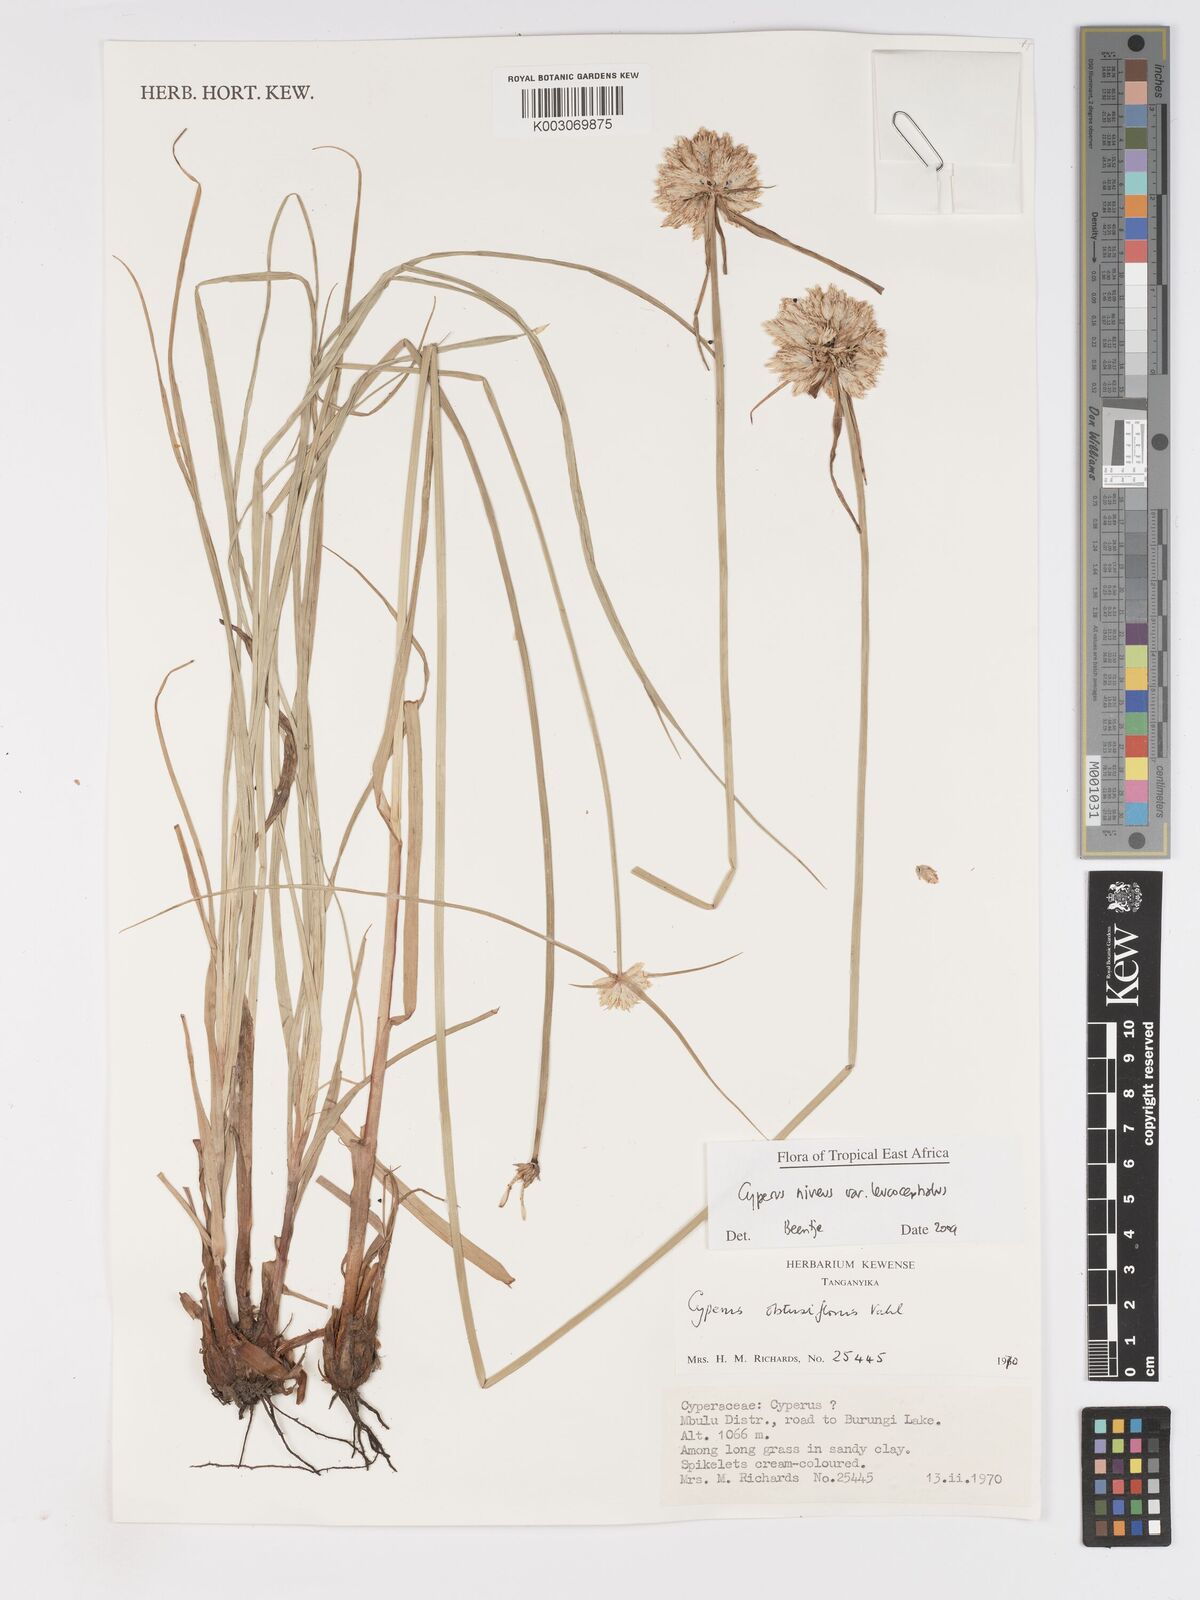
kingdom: Plantae
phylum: Tracheophyta
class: Liliopsida
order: Poales
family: Cyperaceae
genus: Cyperus
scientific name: Cyperus niveus
